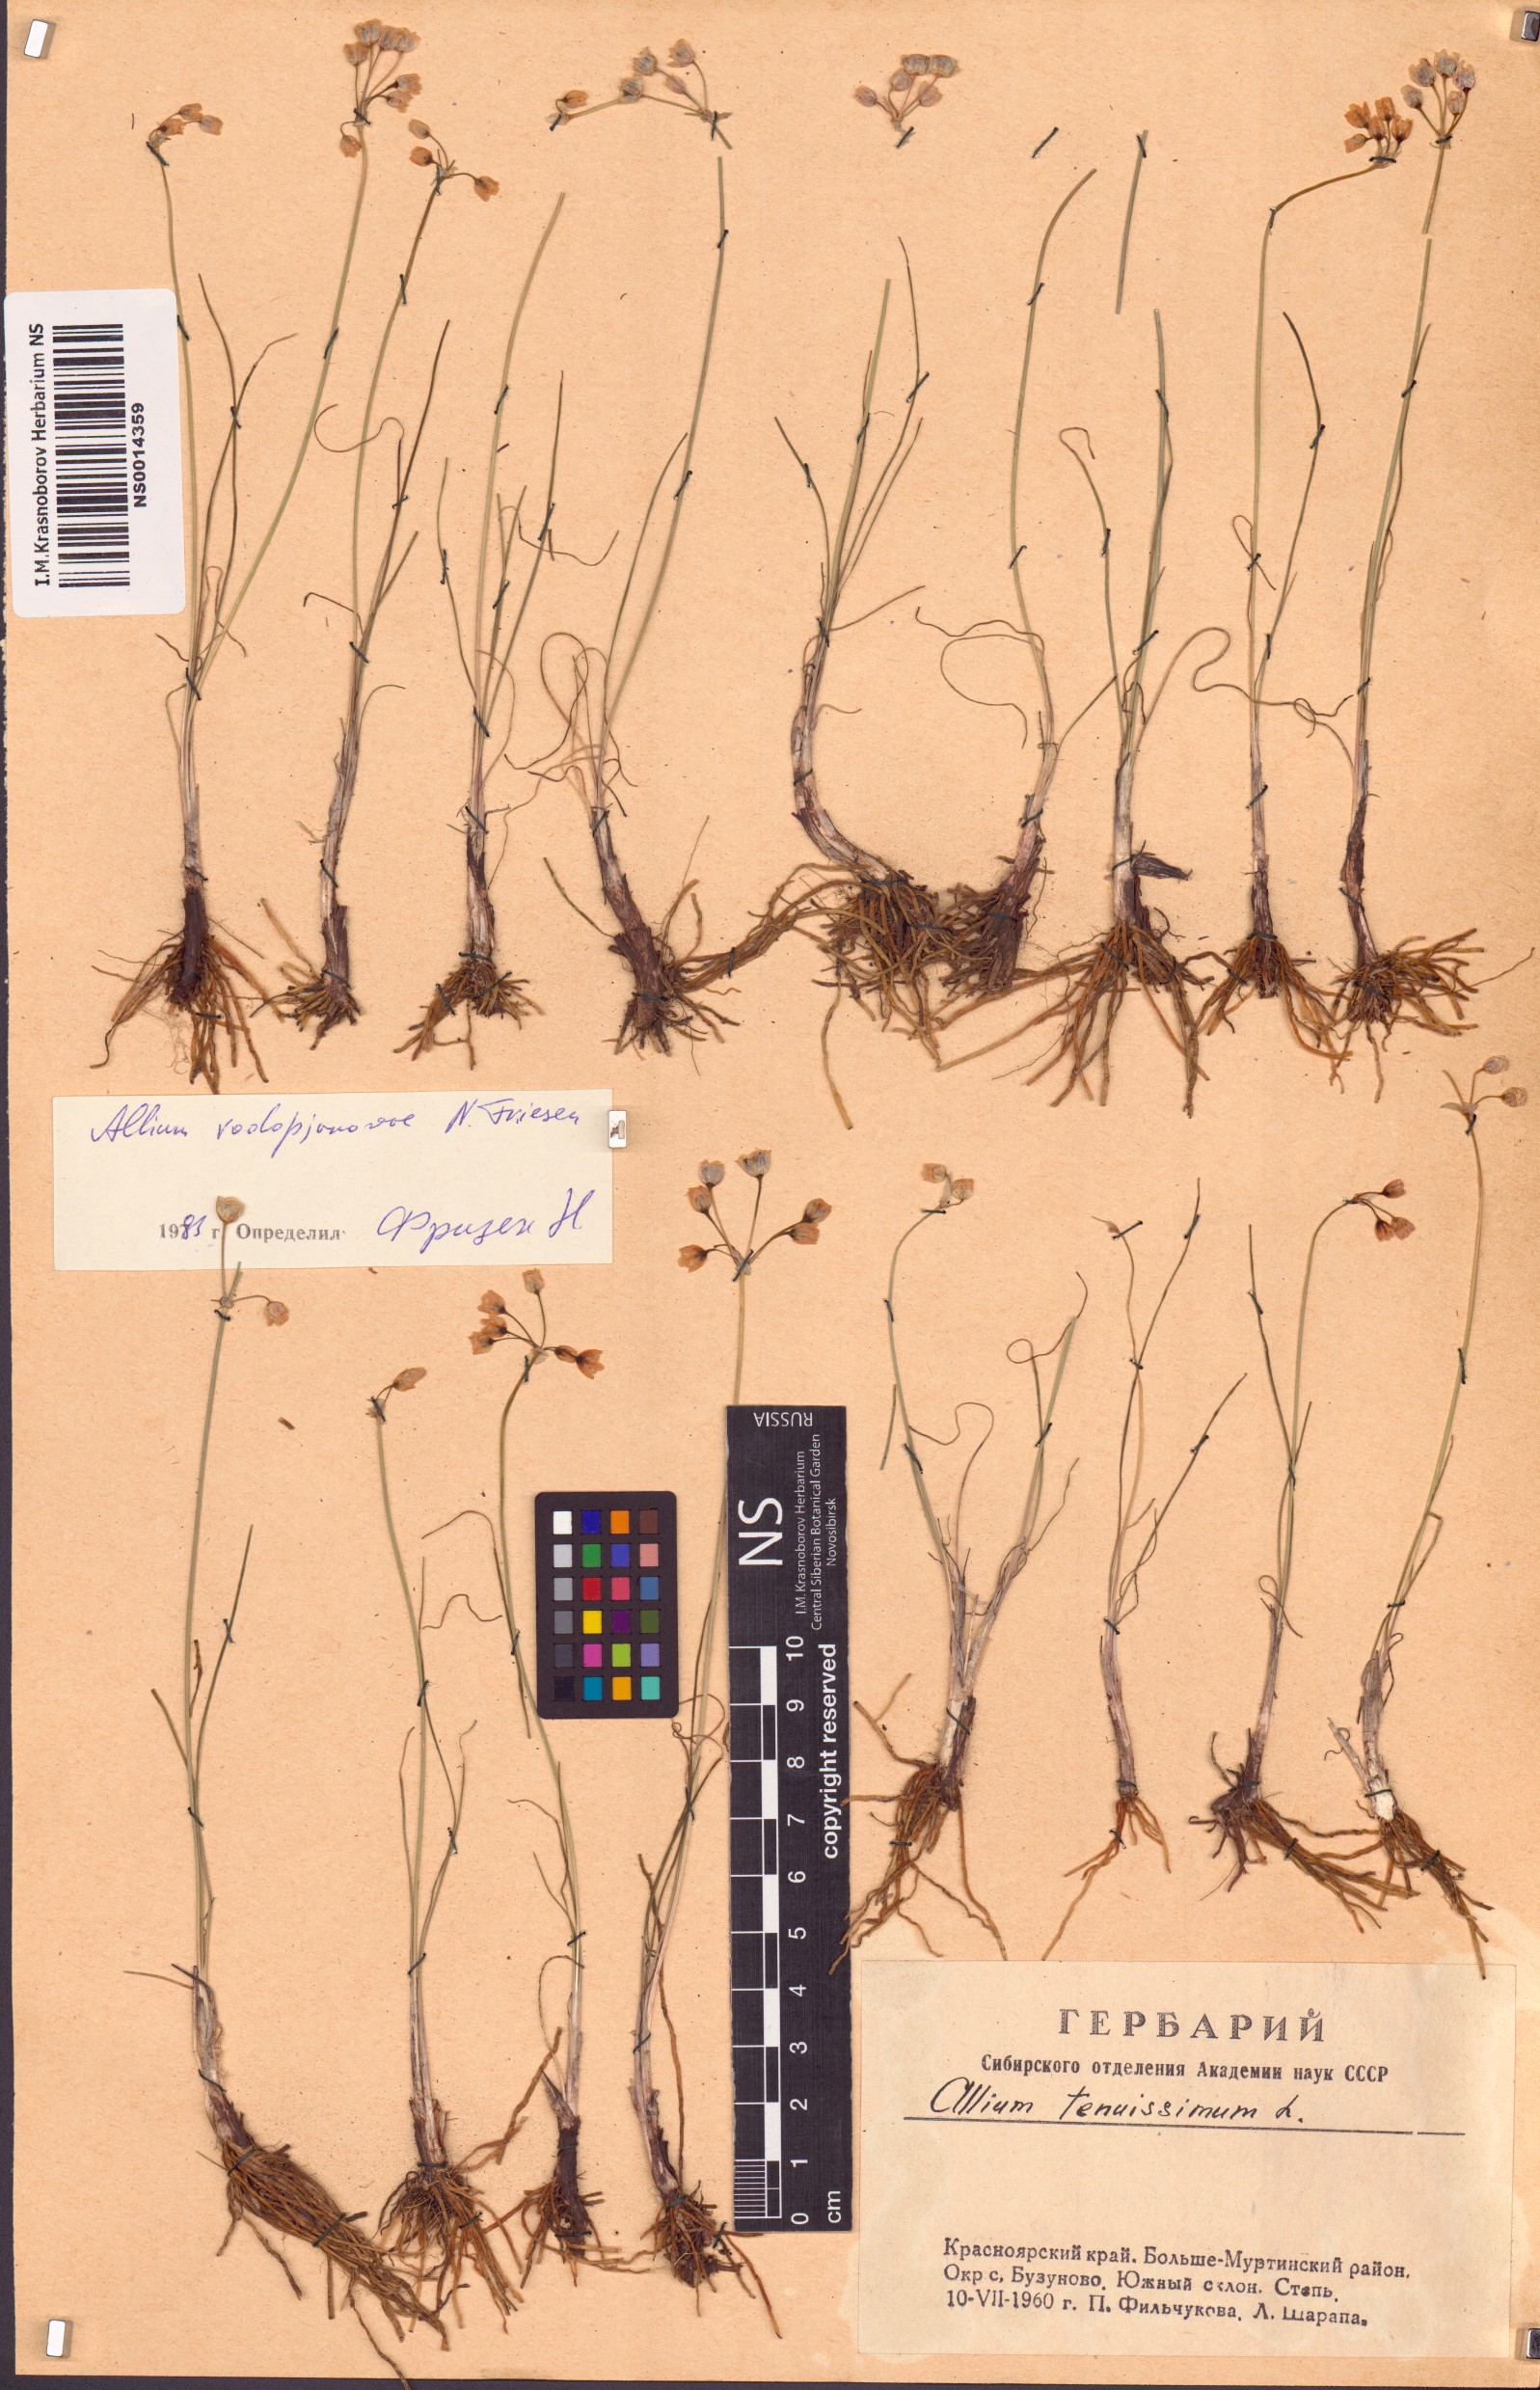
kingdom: Plantae
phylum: Tracheophyta
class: Liliopsida
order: Asparagales
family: Amaryllidaceae
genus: Allium
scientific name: Allium vodopjanovae
